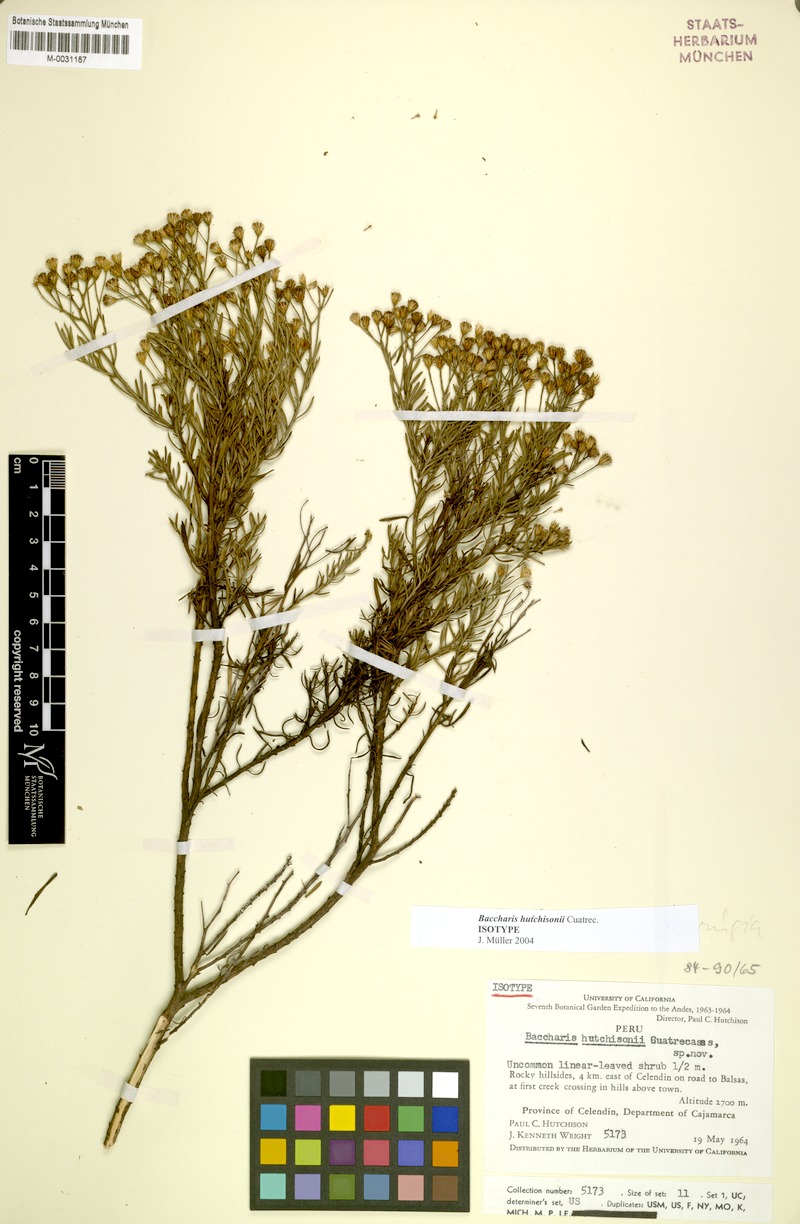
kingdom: Plantae
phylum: Tracheophyta
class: Magnoliopsida
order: Asterales
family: Asteraceae
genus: Baccharis
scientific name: Baccharis hutchisonii
